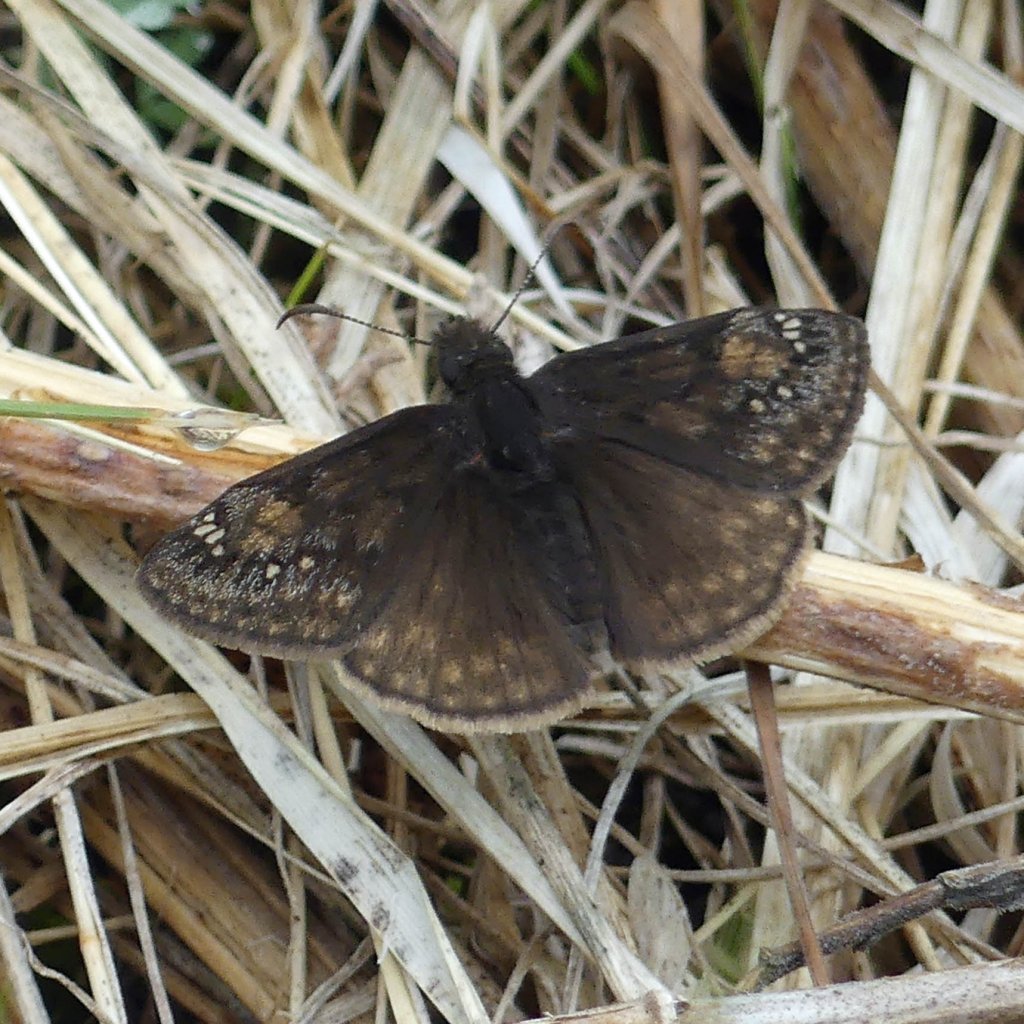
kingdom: Animalia
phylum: Arthropoda
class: Insecta
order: Lepidoptera
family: Hesperiidae
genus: Gesta
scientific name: Gesta
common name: Wild Indigo Duskywing
